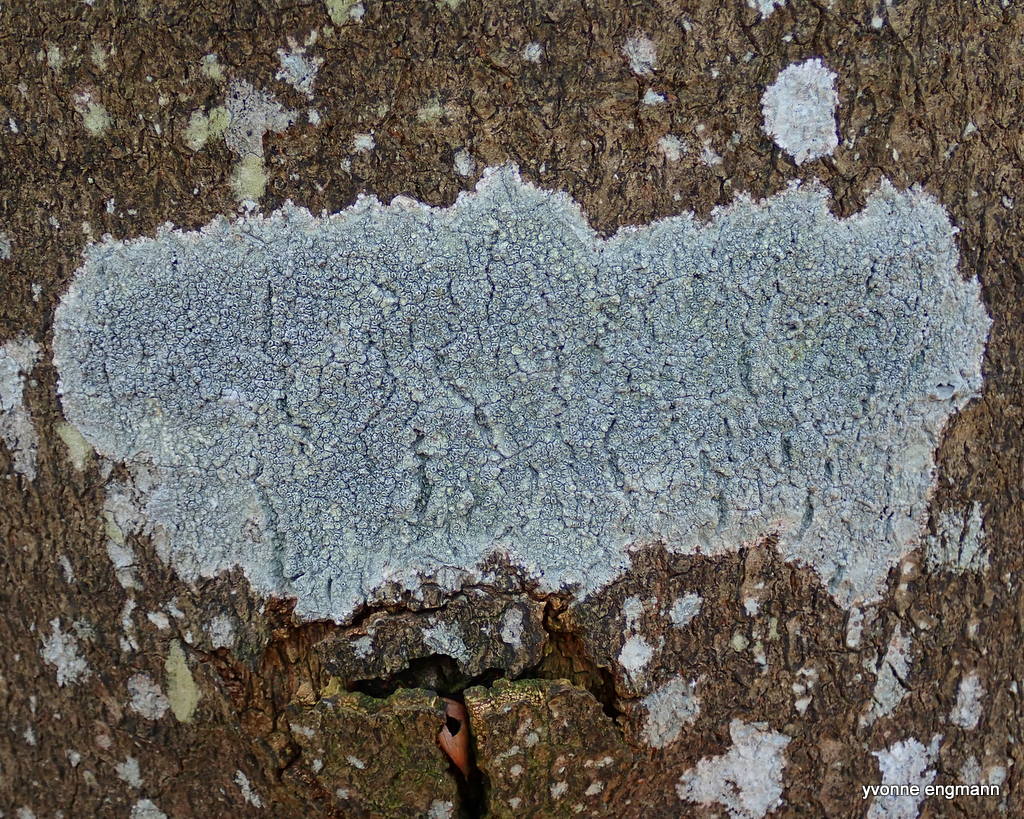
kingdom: Fungi
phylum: Ascomycota
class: Lecanoromycetes
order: Pertusariales
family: Pertusariaceae
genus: Pertusaria
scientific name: Pertusaria hymenea
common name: åben prikvortelav
